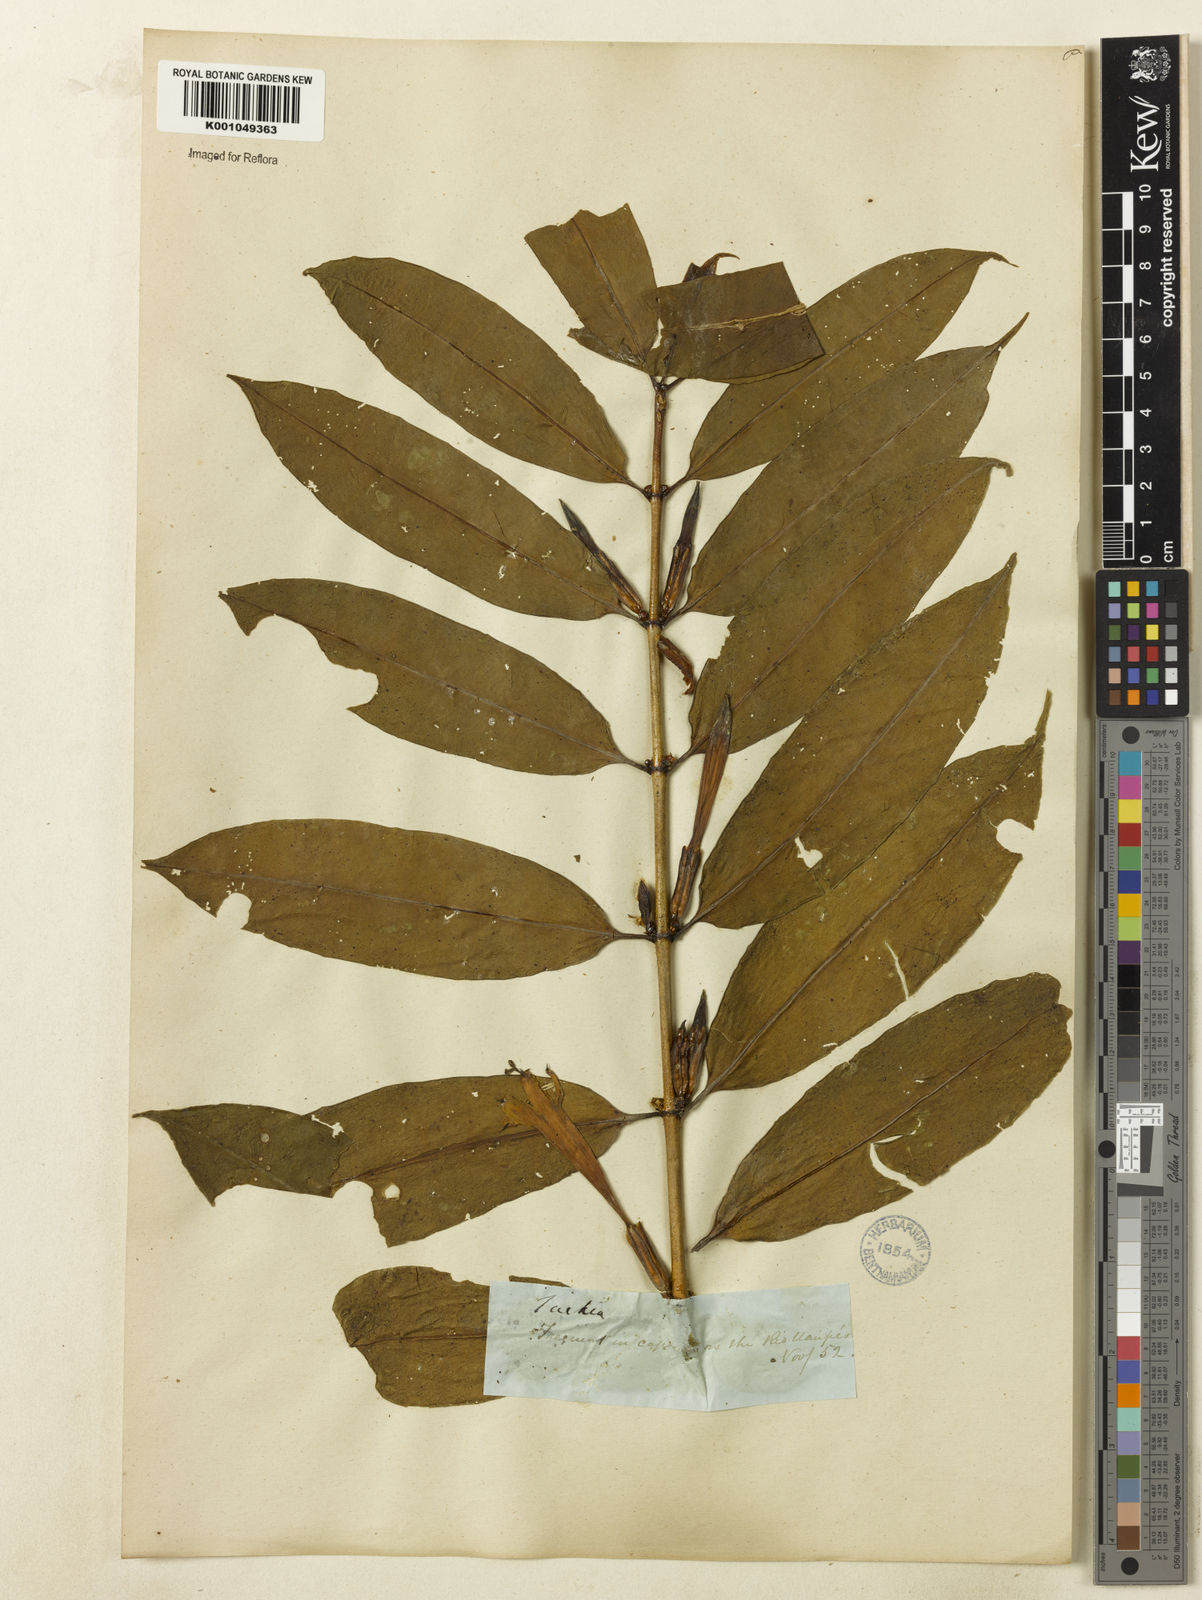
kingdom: Plantae
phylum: Tracheophyta
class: Magnoliopsida
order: Gentianales
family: Gentianaceae
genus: Tachia
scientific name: Tachia guianensis
